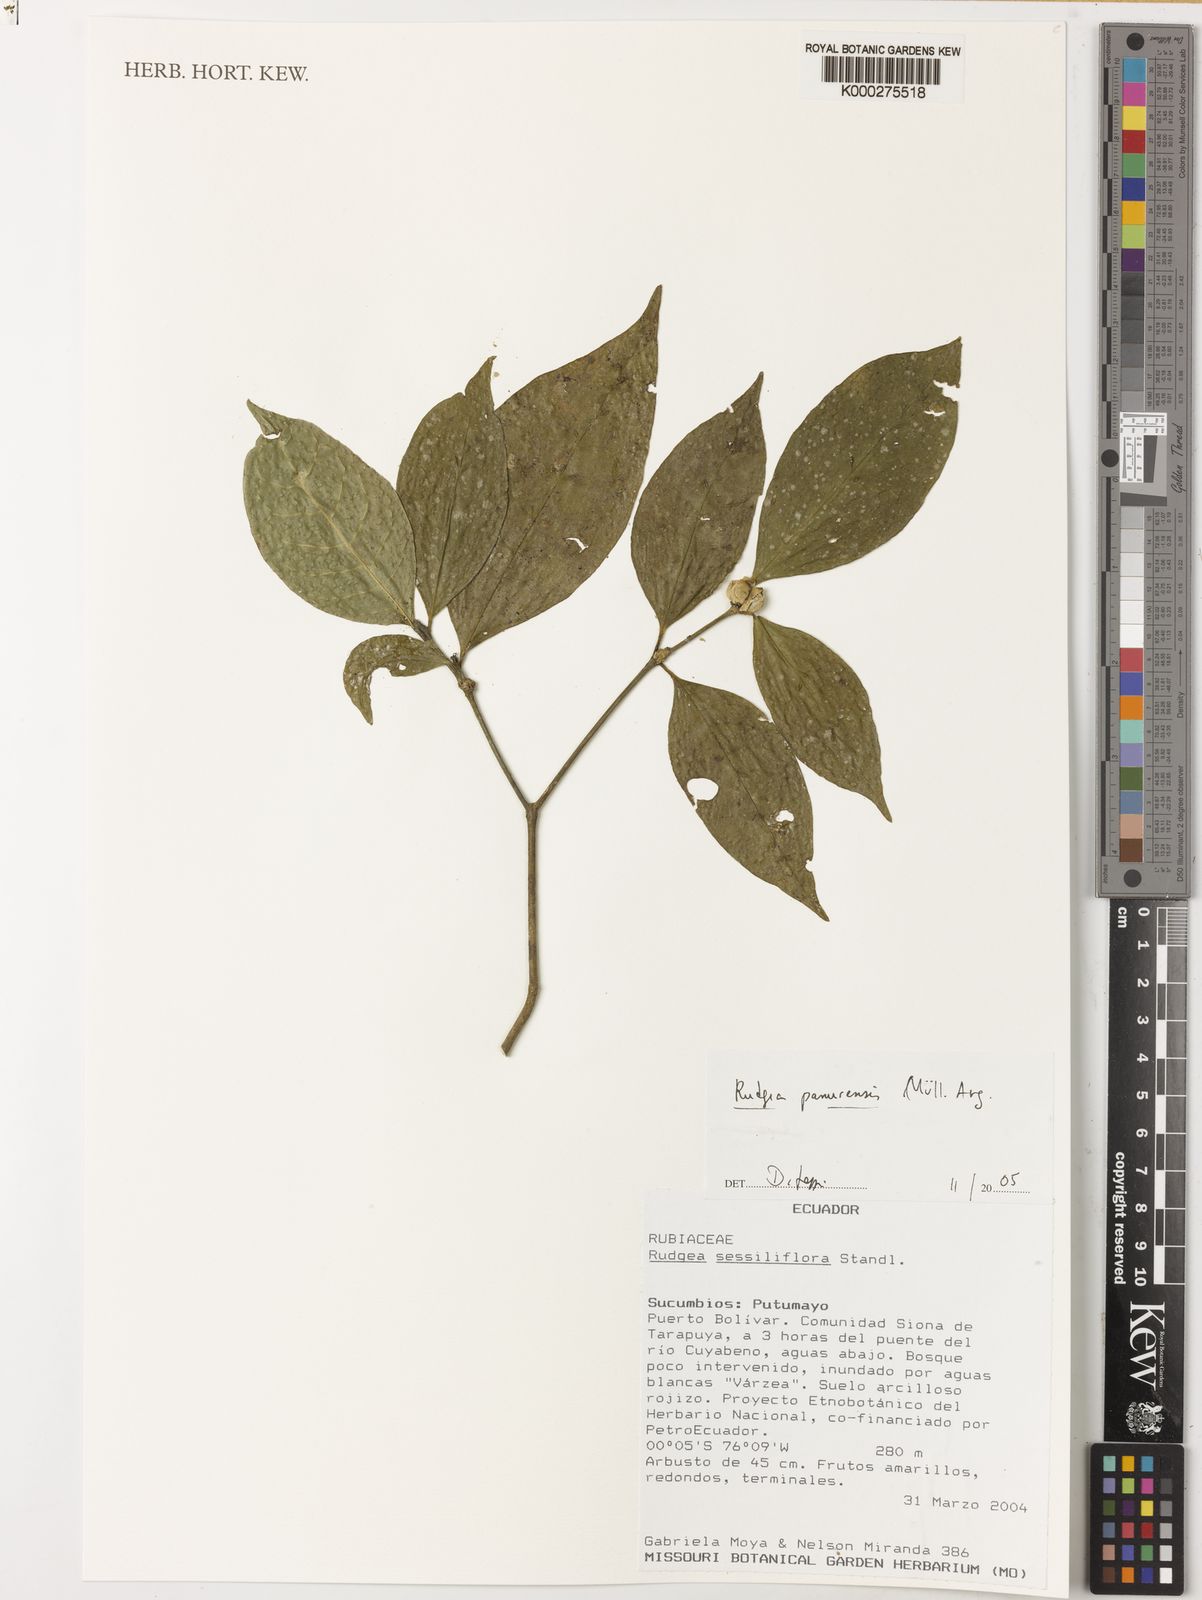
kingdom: Plantae
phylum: Tracheophyta
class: Magnoliopsida
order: Gentianales
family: Rubiaceae
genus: Rudgea
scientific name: Rudgea
